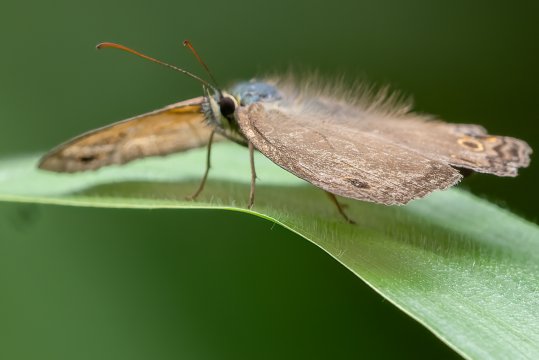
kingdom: Animalia
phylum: Arthropoda
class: Insecta
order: Lepidoptera
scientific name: Lepidoptera
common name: Butterflies
